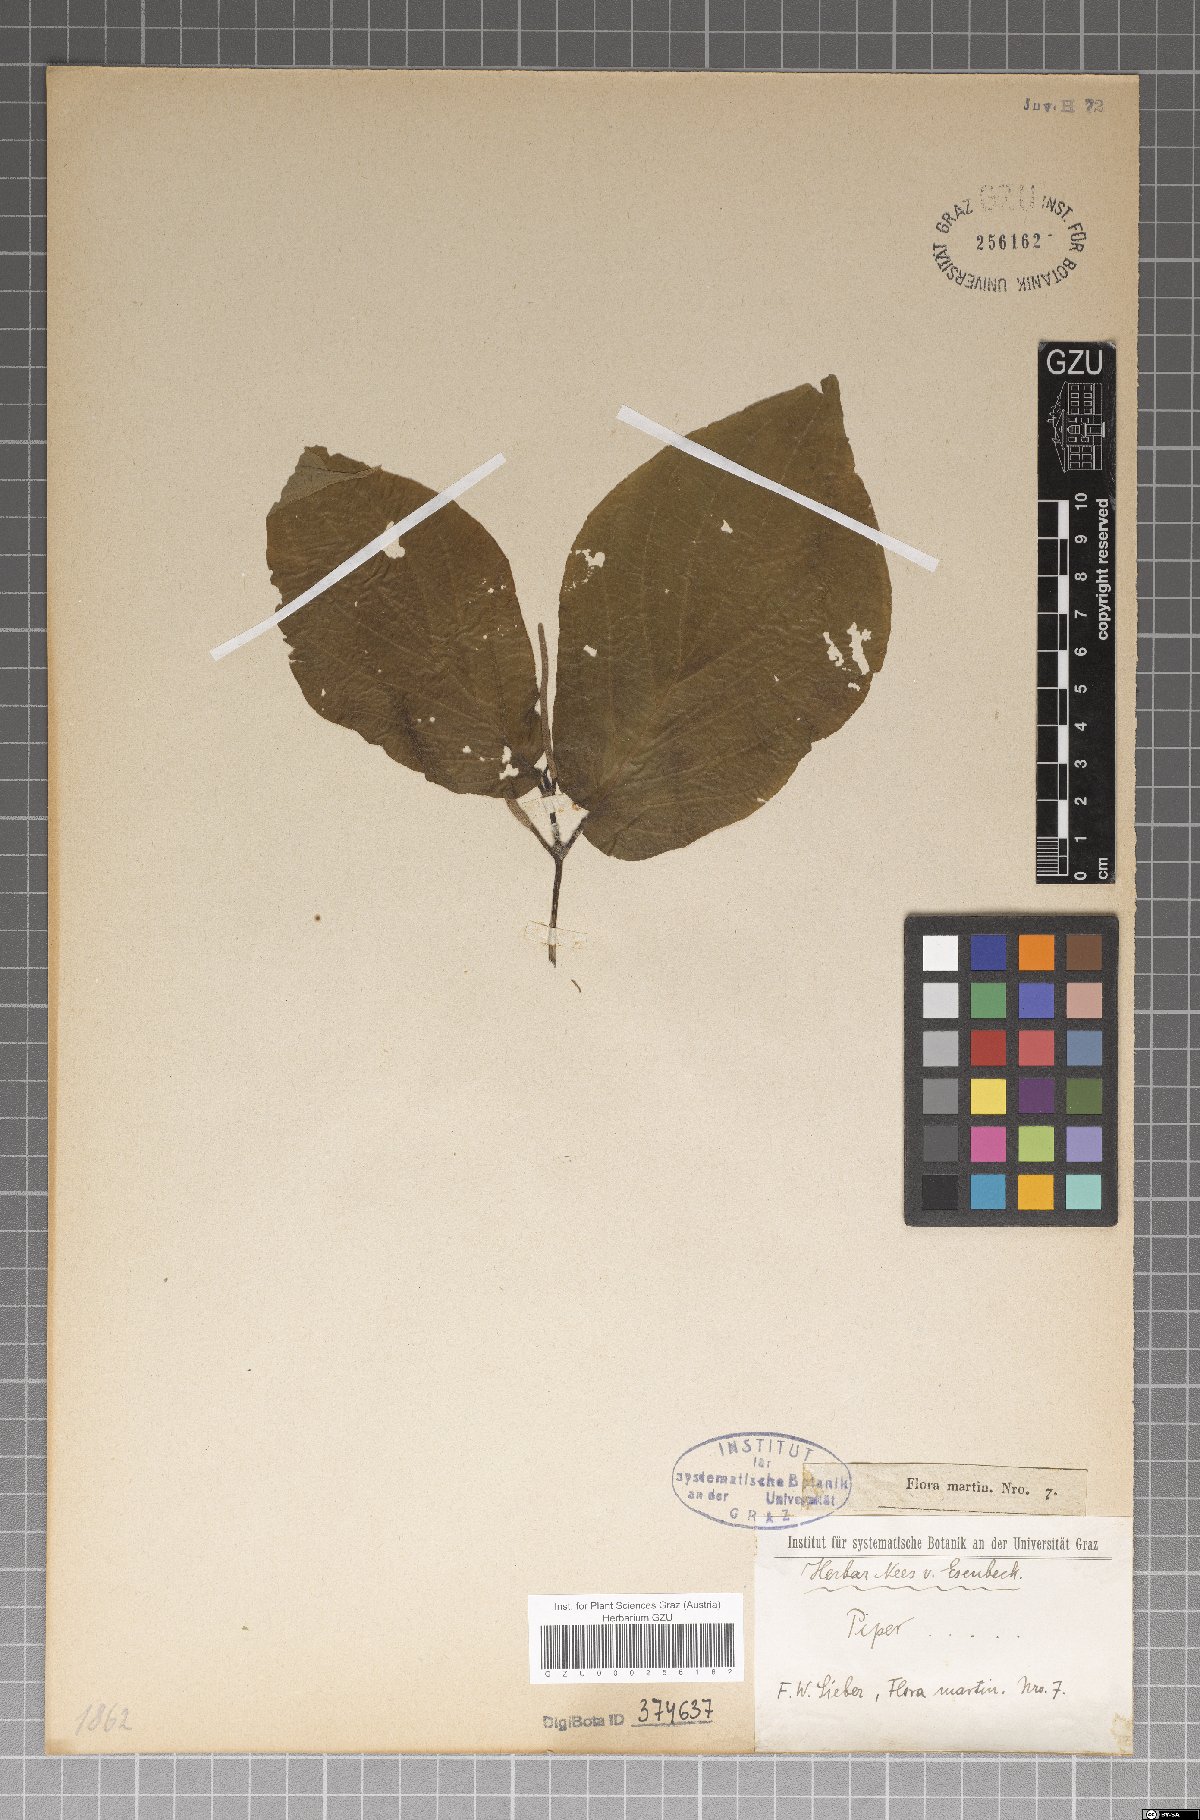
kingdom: Plantae
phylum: Tracheophyta
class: Magnoliopsida
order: Piperales
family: Piperaceae
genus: Piper
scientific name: Piper
